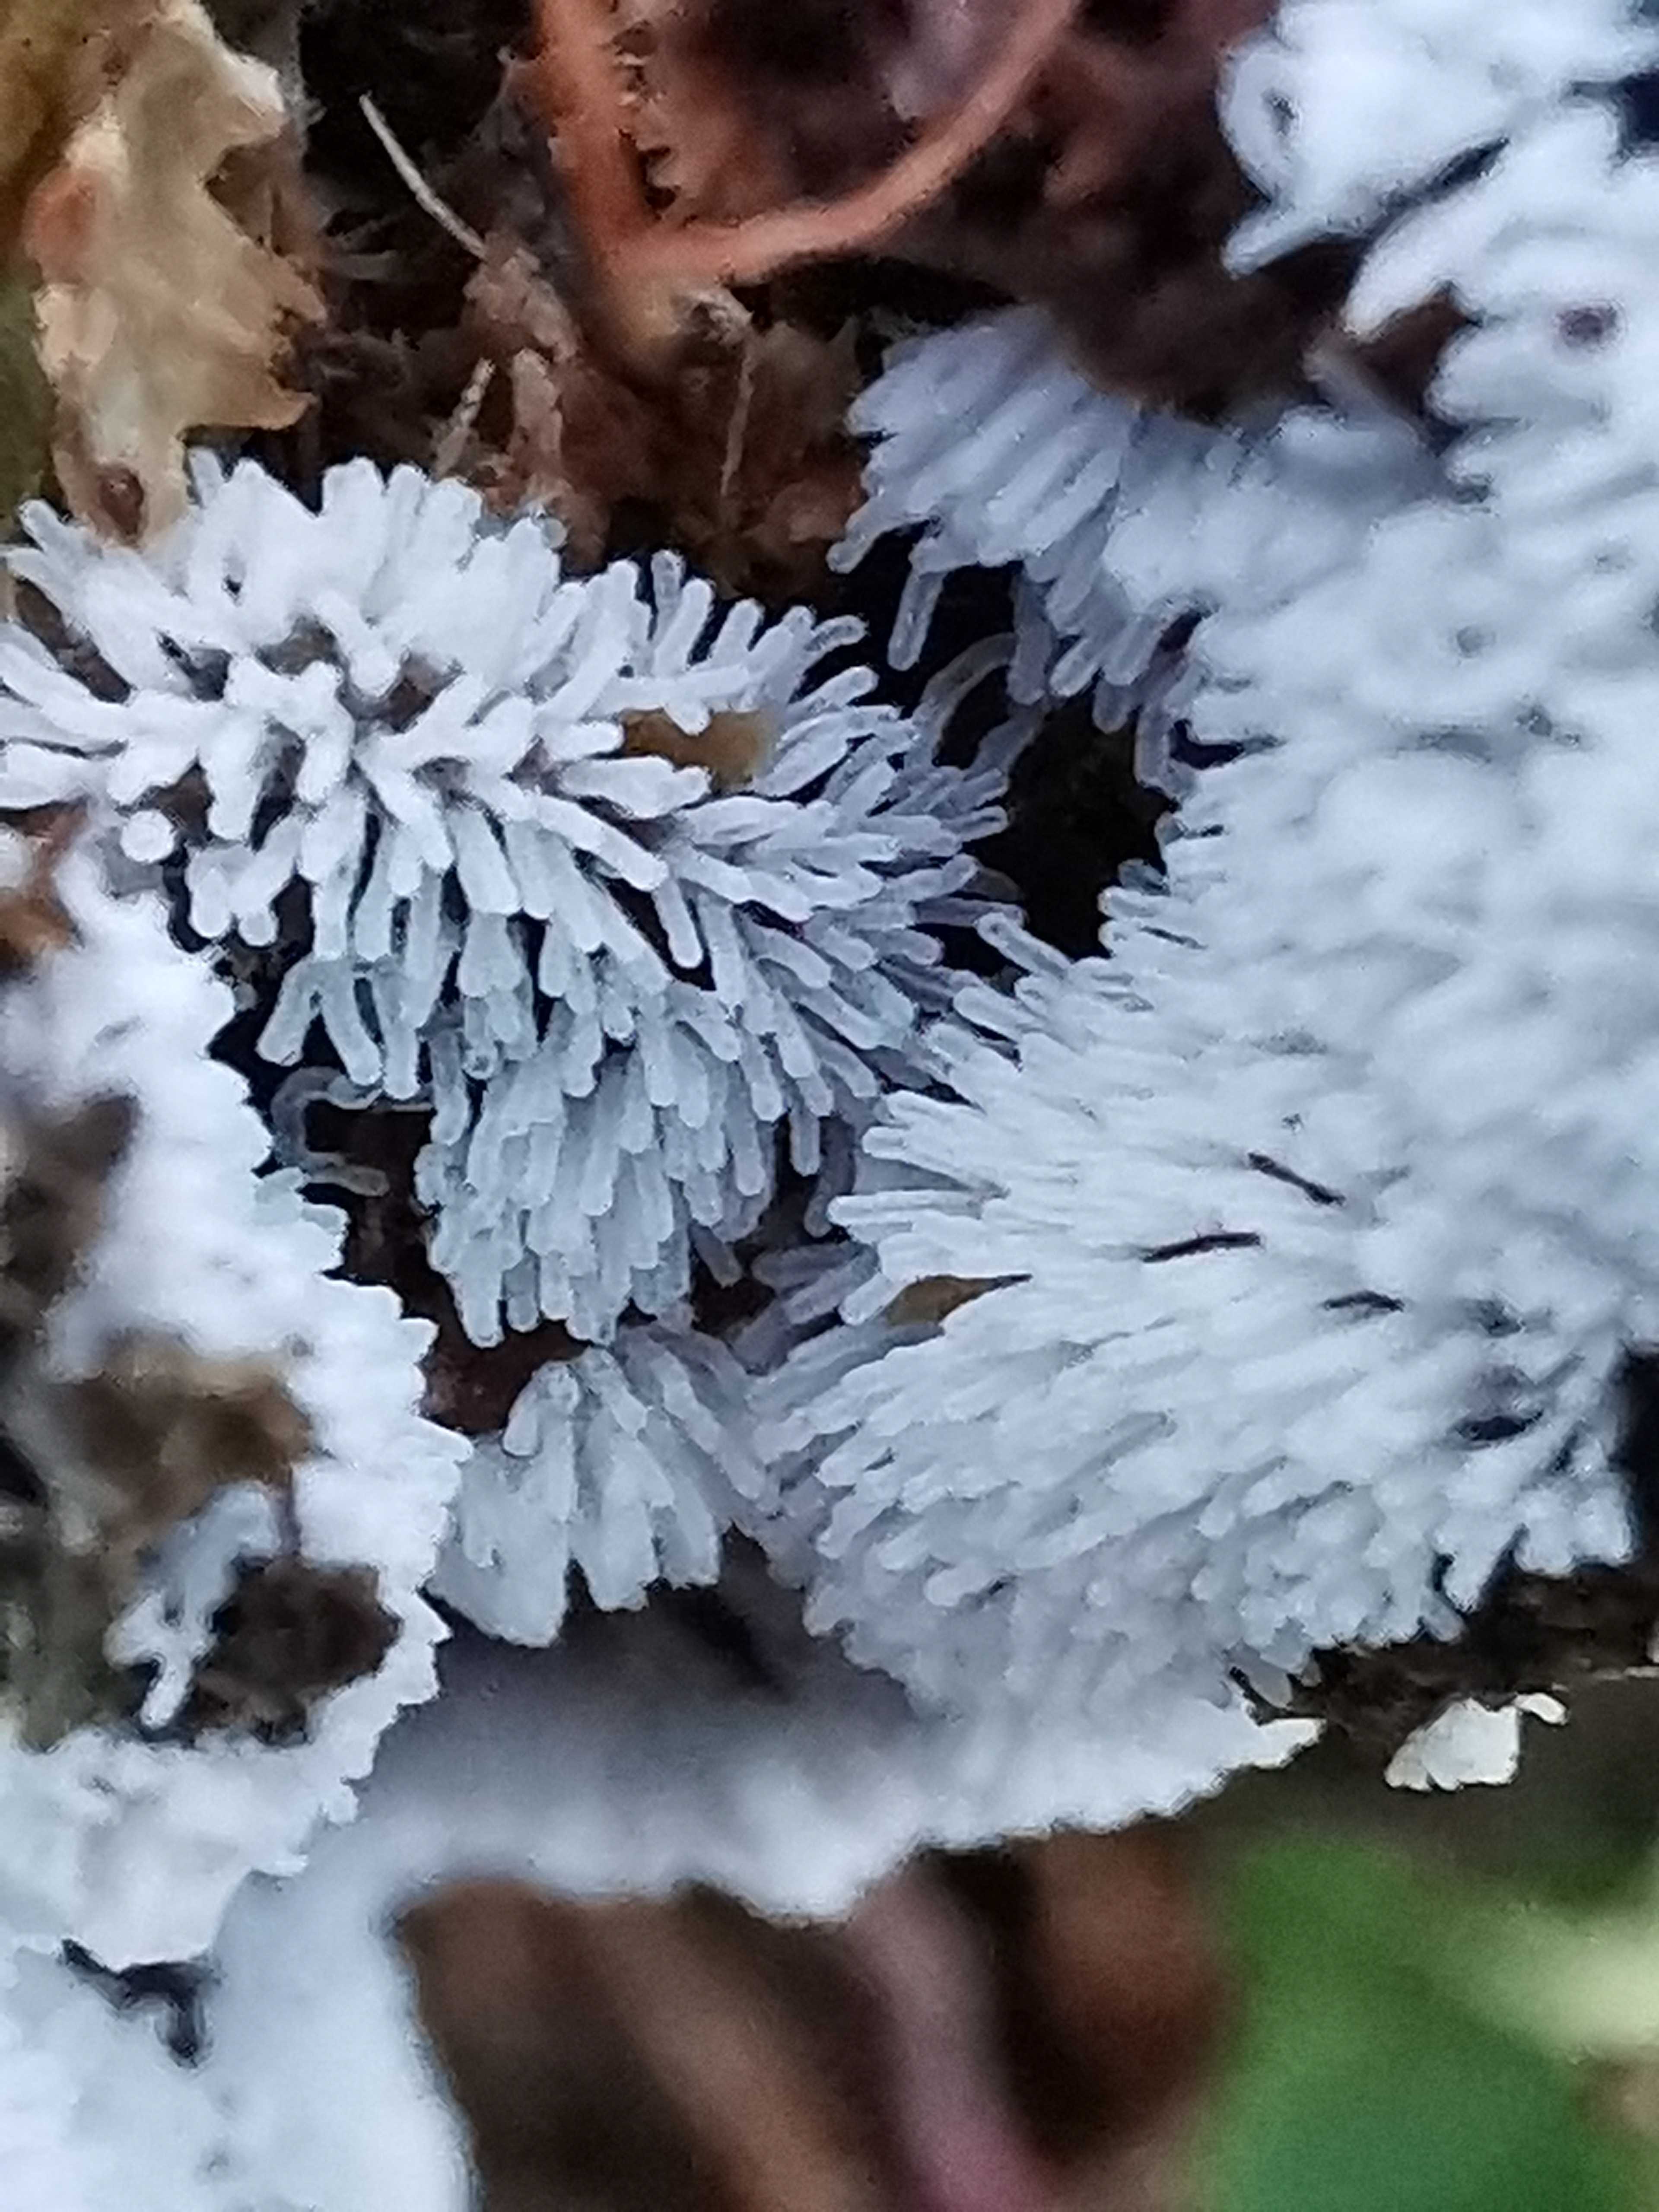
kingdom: Protozoa
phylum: Mycetozoa
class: Protosteliomycetes
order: Ceratiomyxales
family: Ceratiomyxaceae
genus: Ceratiomyxa
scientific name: Ceratiomyxa fruticulosa
